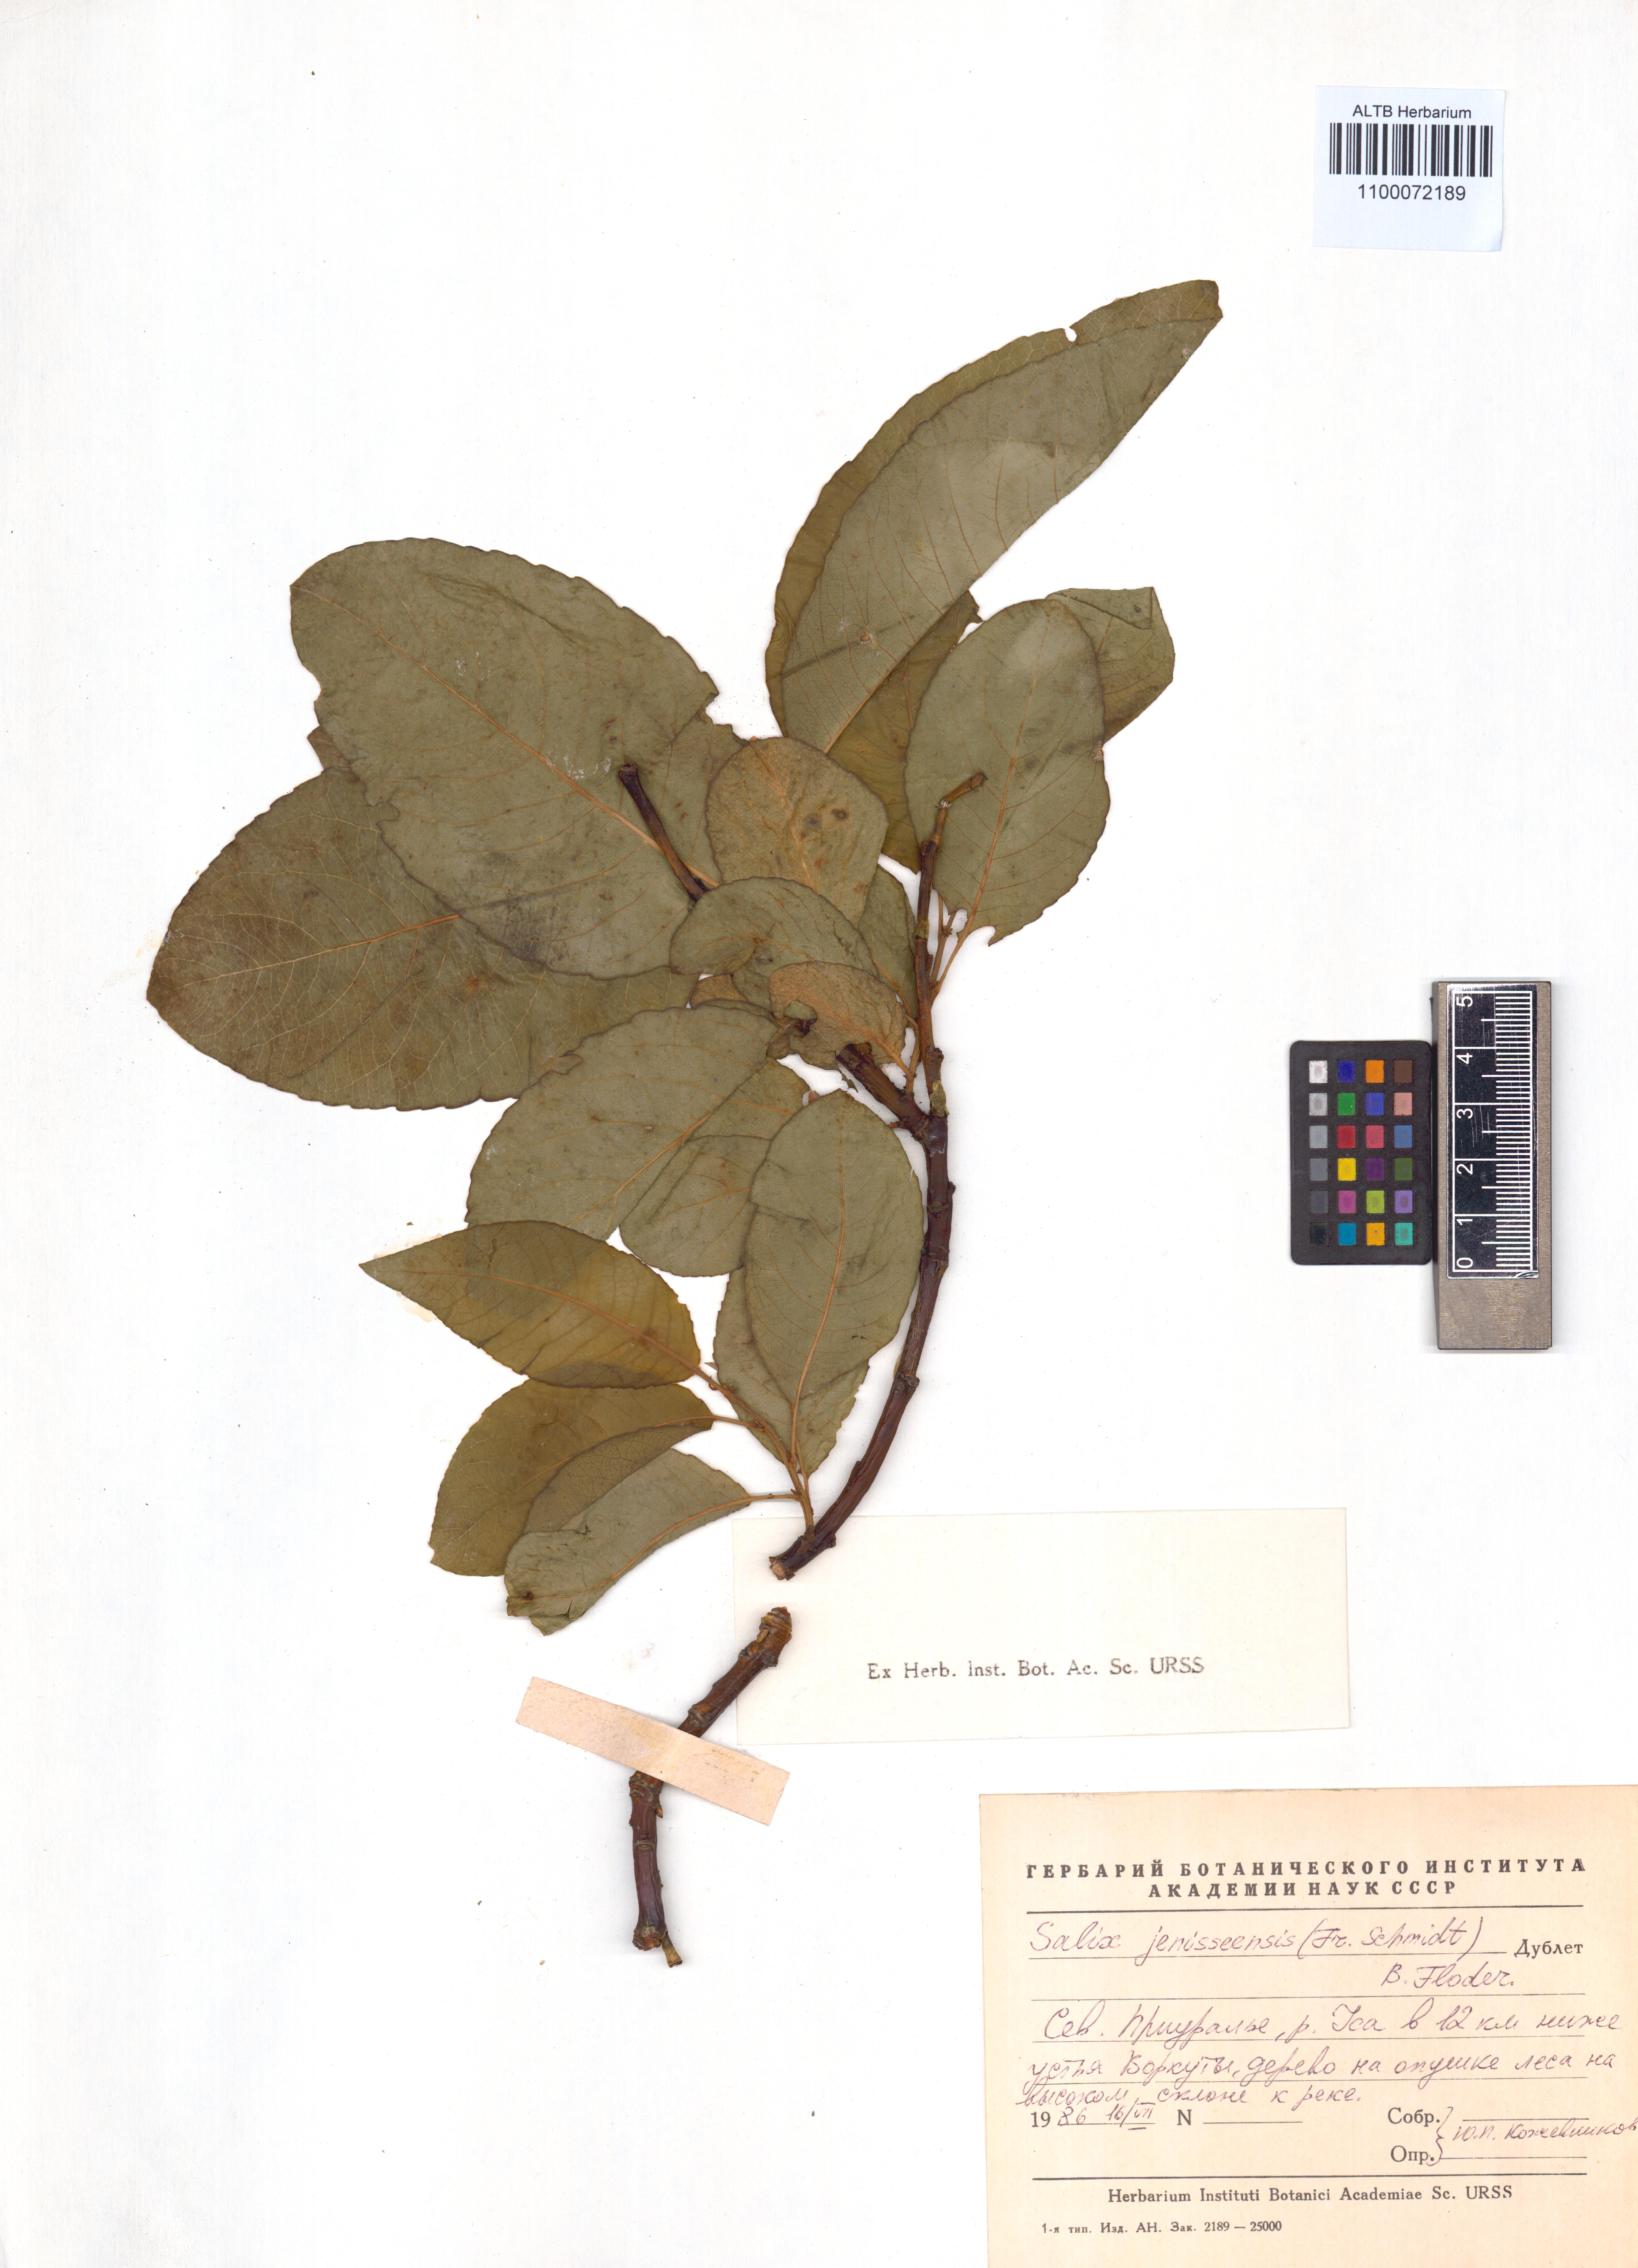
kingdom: Plantae
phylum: Tracheophyta
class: Magnoliopsida
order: Malpighiales
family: Salicaceae
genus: Salix
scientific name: Salix jenisseensis
